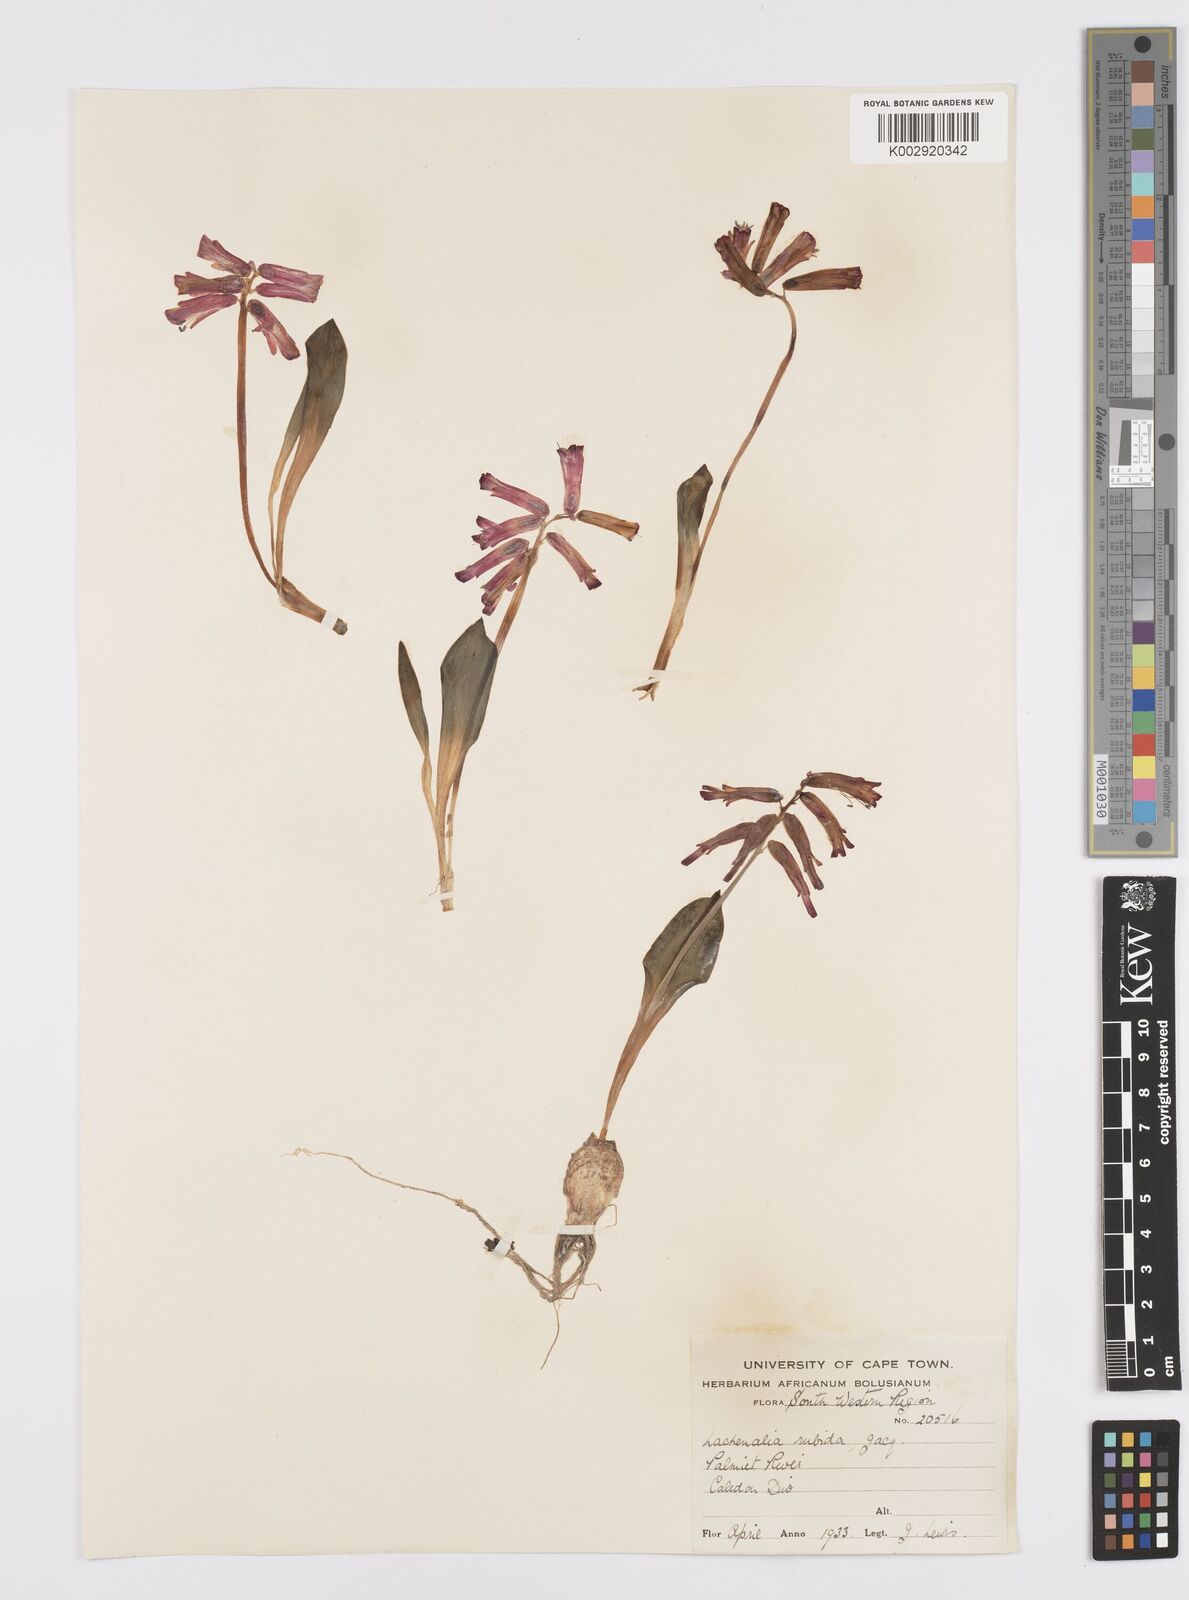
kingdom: Plantae
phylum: Tracheophyta
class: Liliopsida
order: Asparagales
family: Asparagaceae
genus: Lachenalia
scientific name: Lachenalia punctata
